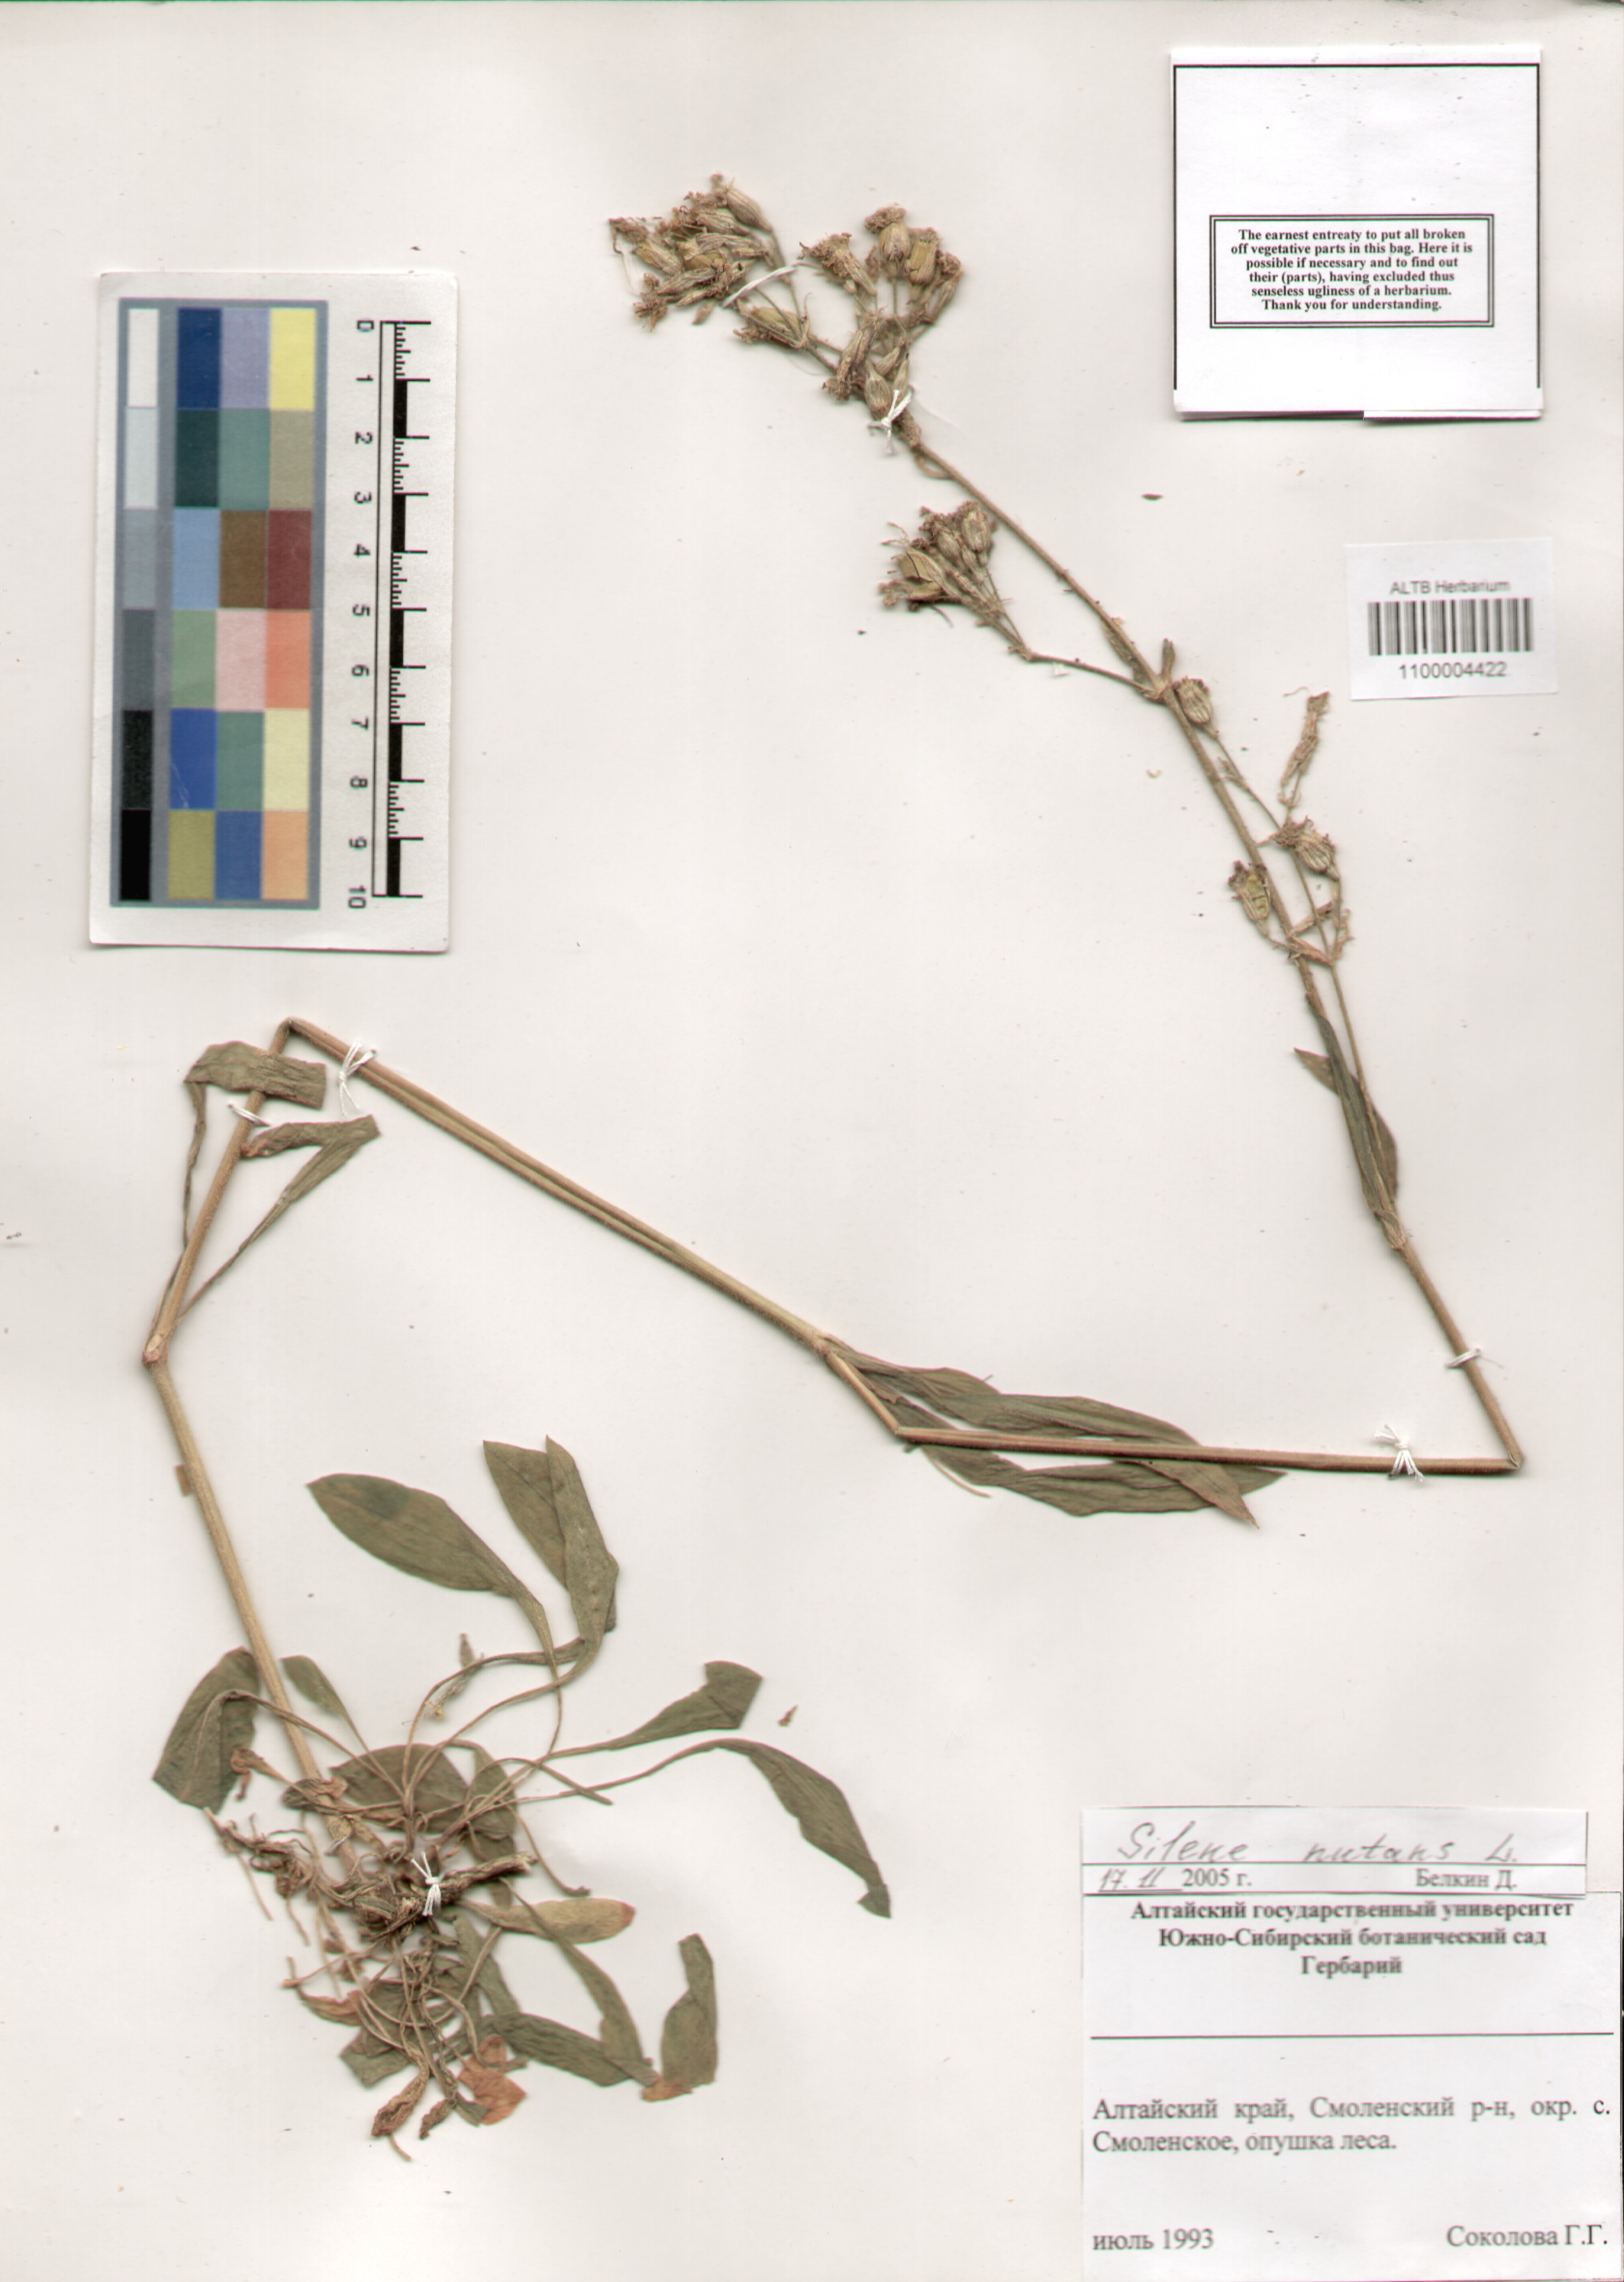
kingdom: Plantae
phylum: Tracheophyta
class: Magnoliopsida
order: Caryophyllales
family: Caryophyllaceae
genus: Silene
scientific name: Silene nutans
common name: Nottingham catchfly
